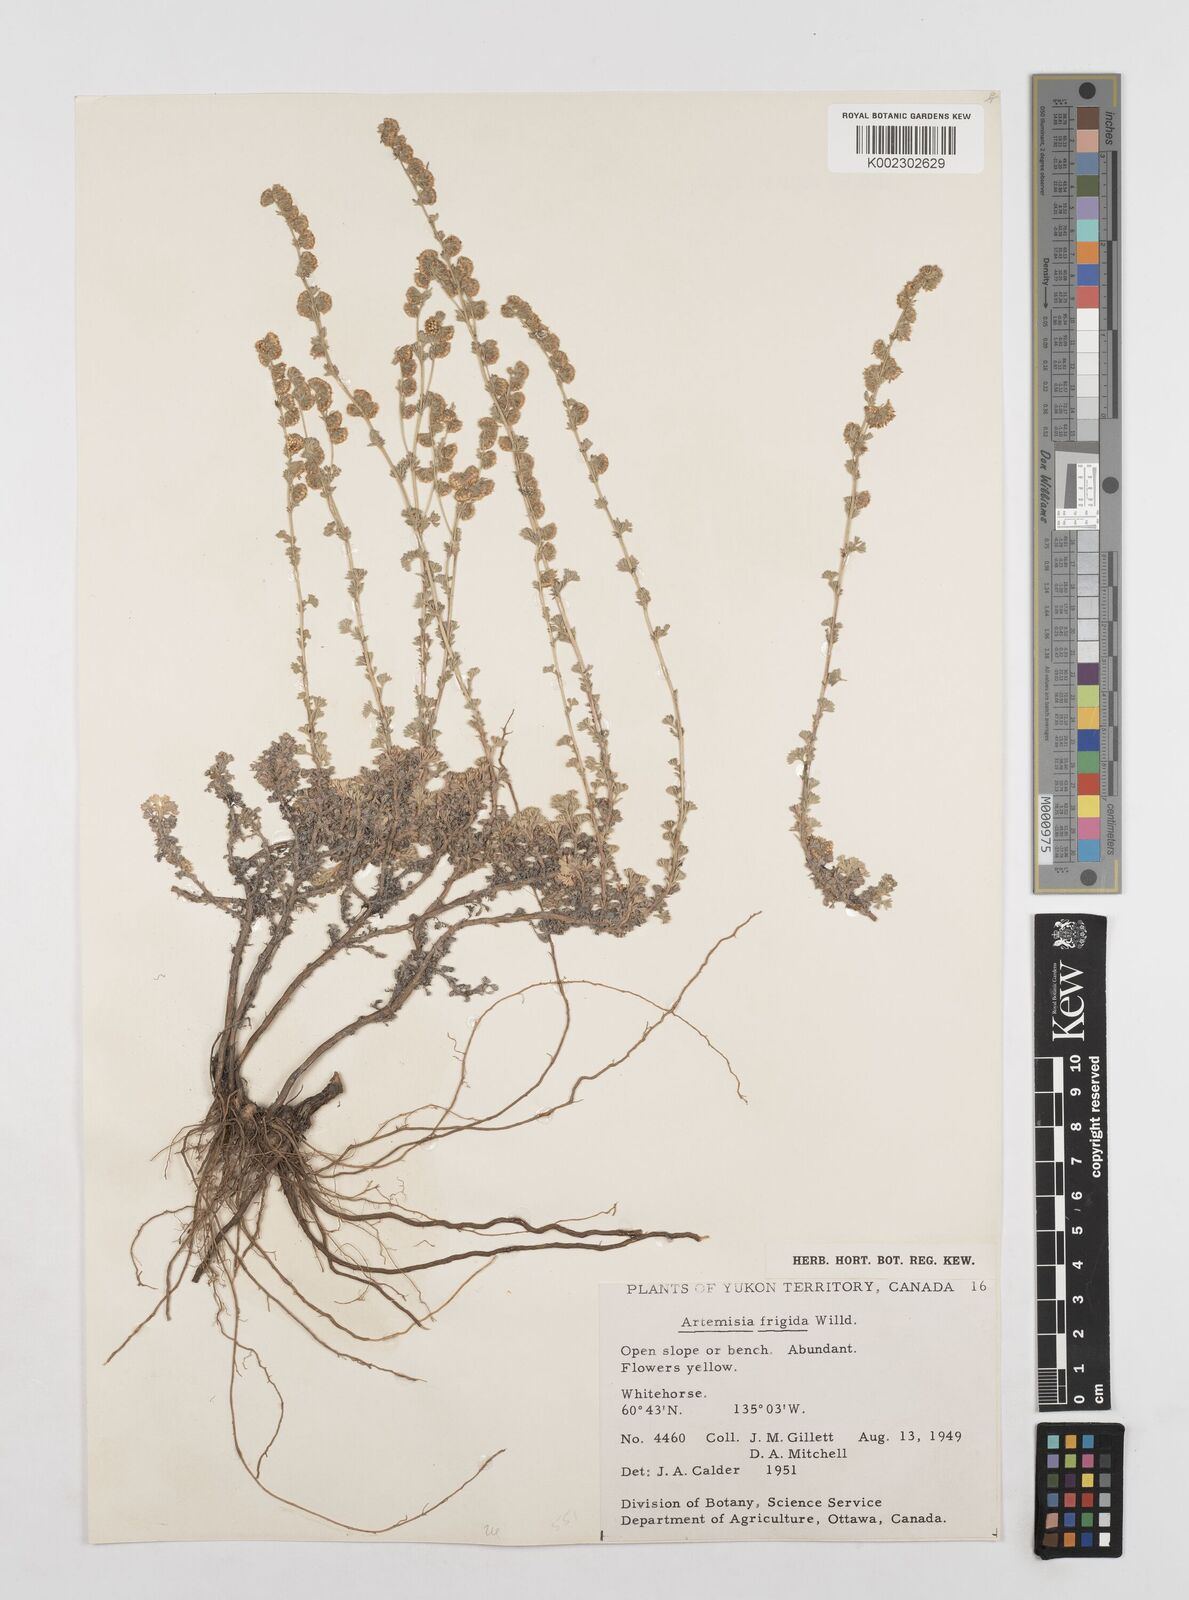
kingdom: Plantae
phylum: Tracheophyta
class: Magnoliopsida
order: Asterales
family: Asteraceae
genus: Artemisia
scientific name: Artemisia frigida
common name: Prairie sagewort
